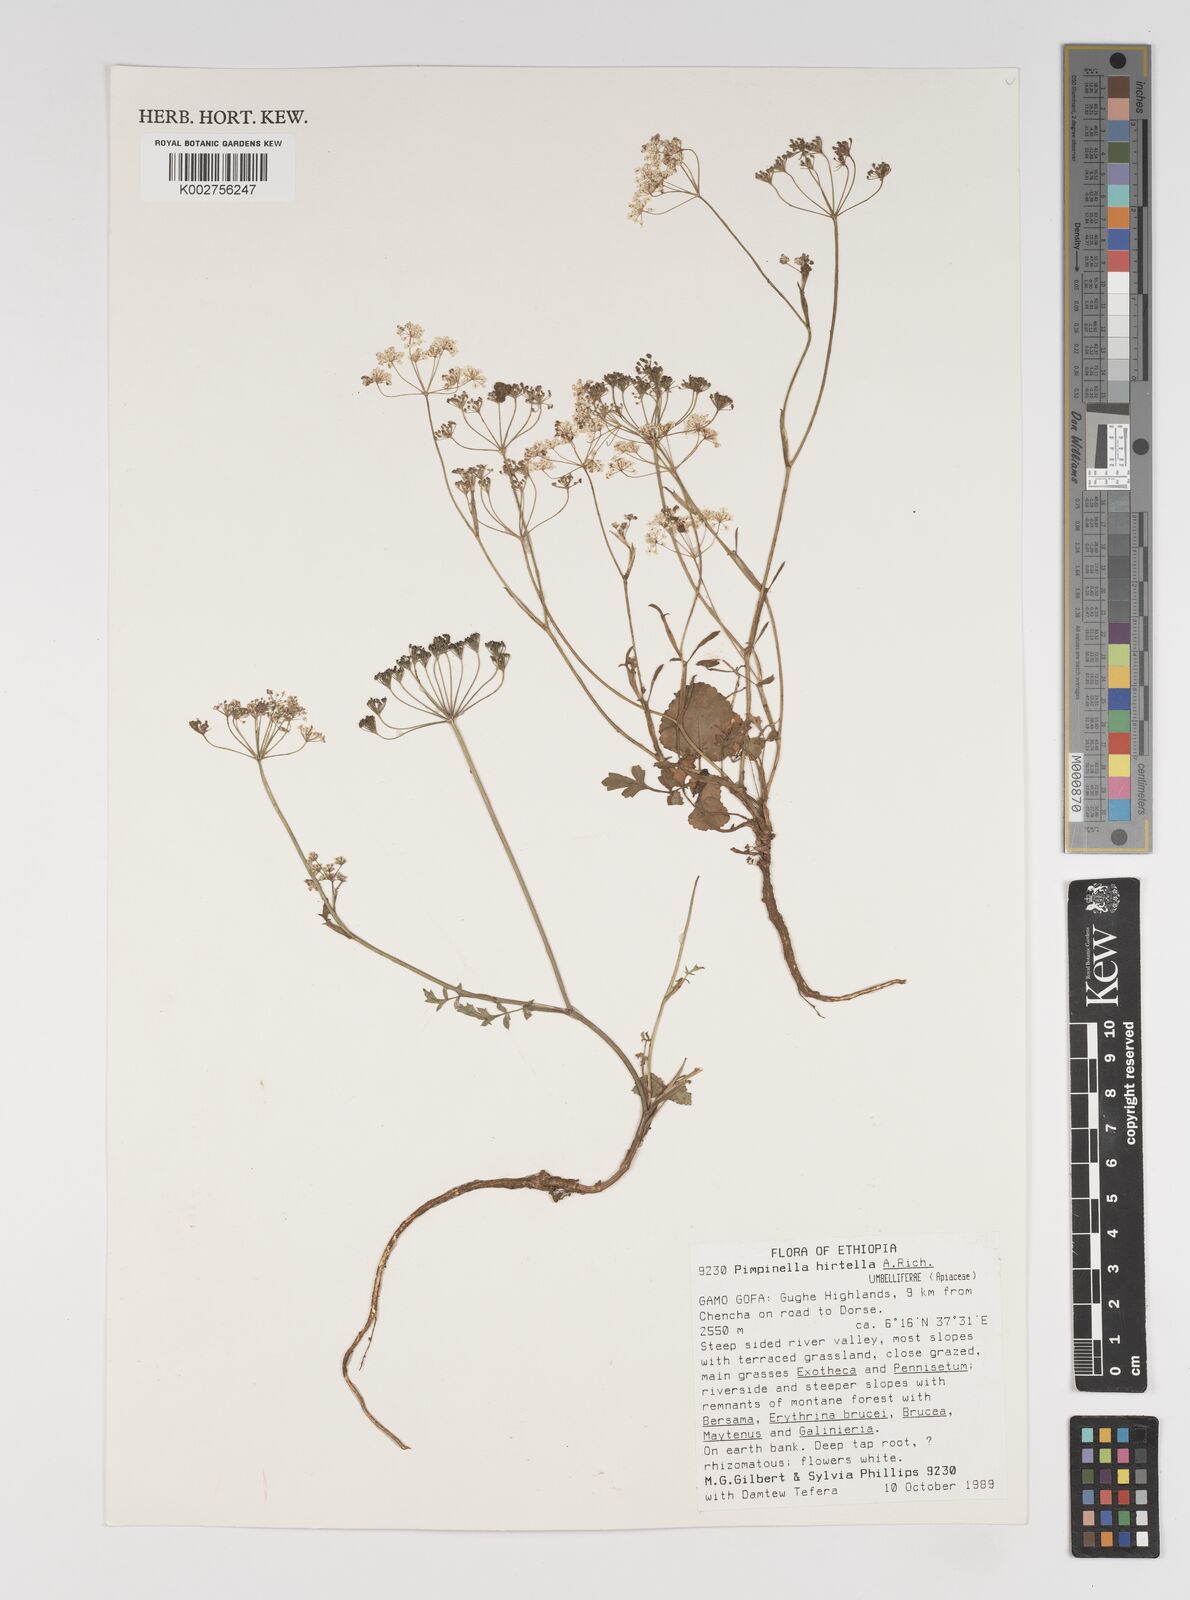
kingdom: Plantae
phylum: Tracheophyta
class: Magnoliopsida
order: Apiales
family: Apiaceae
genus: Pimpinella
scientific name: Pimpinella hirtella
